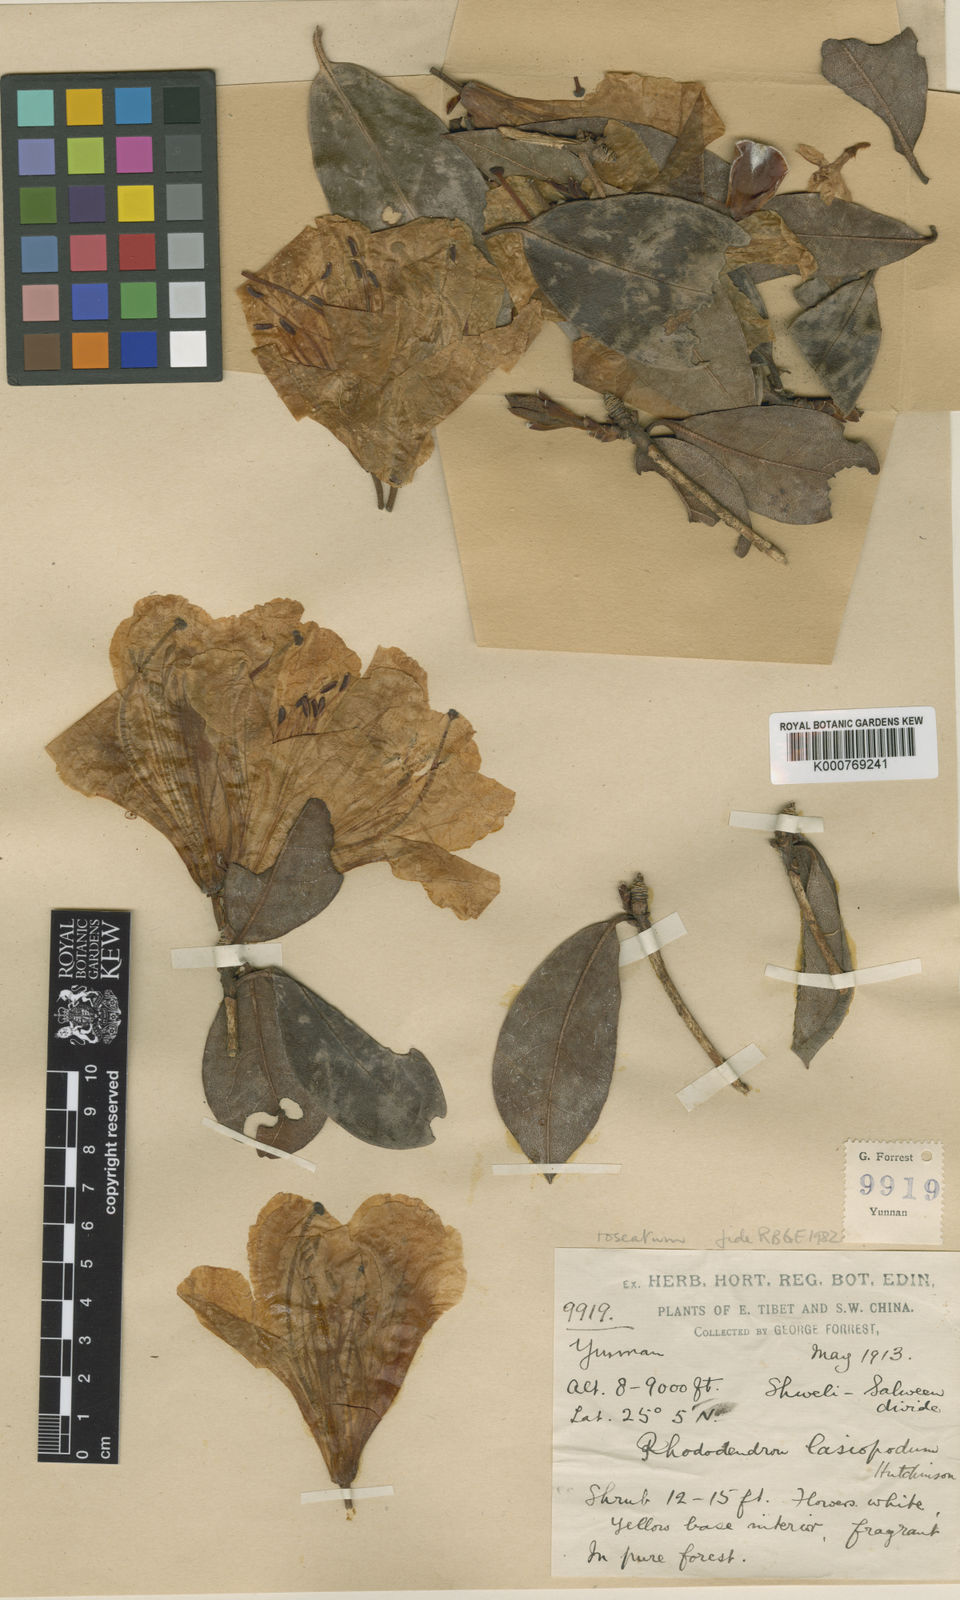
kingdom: Plantae
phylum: Tracheophyta
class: Magnoliopsida
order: Ericales
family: Ericaceae
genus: Rhododendron
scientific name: Rhododendron roseatum
